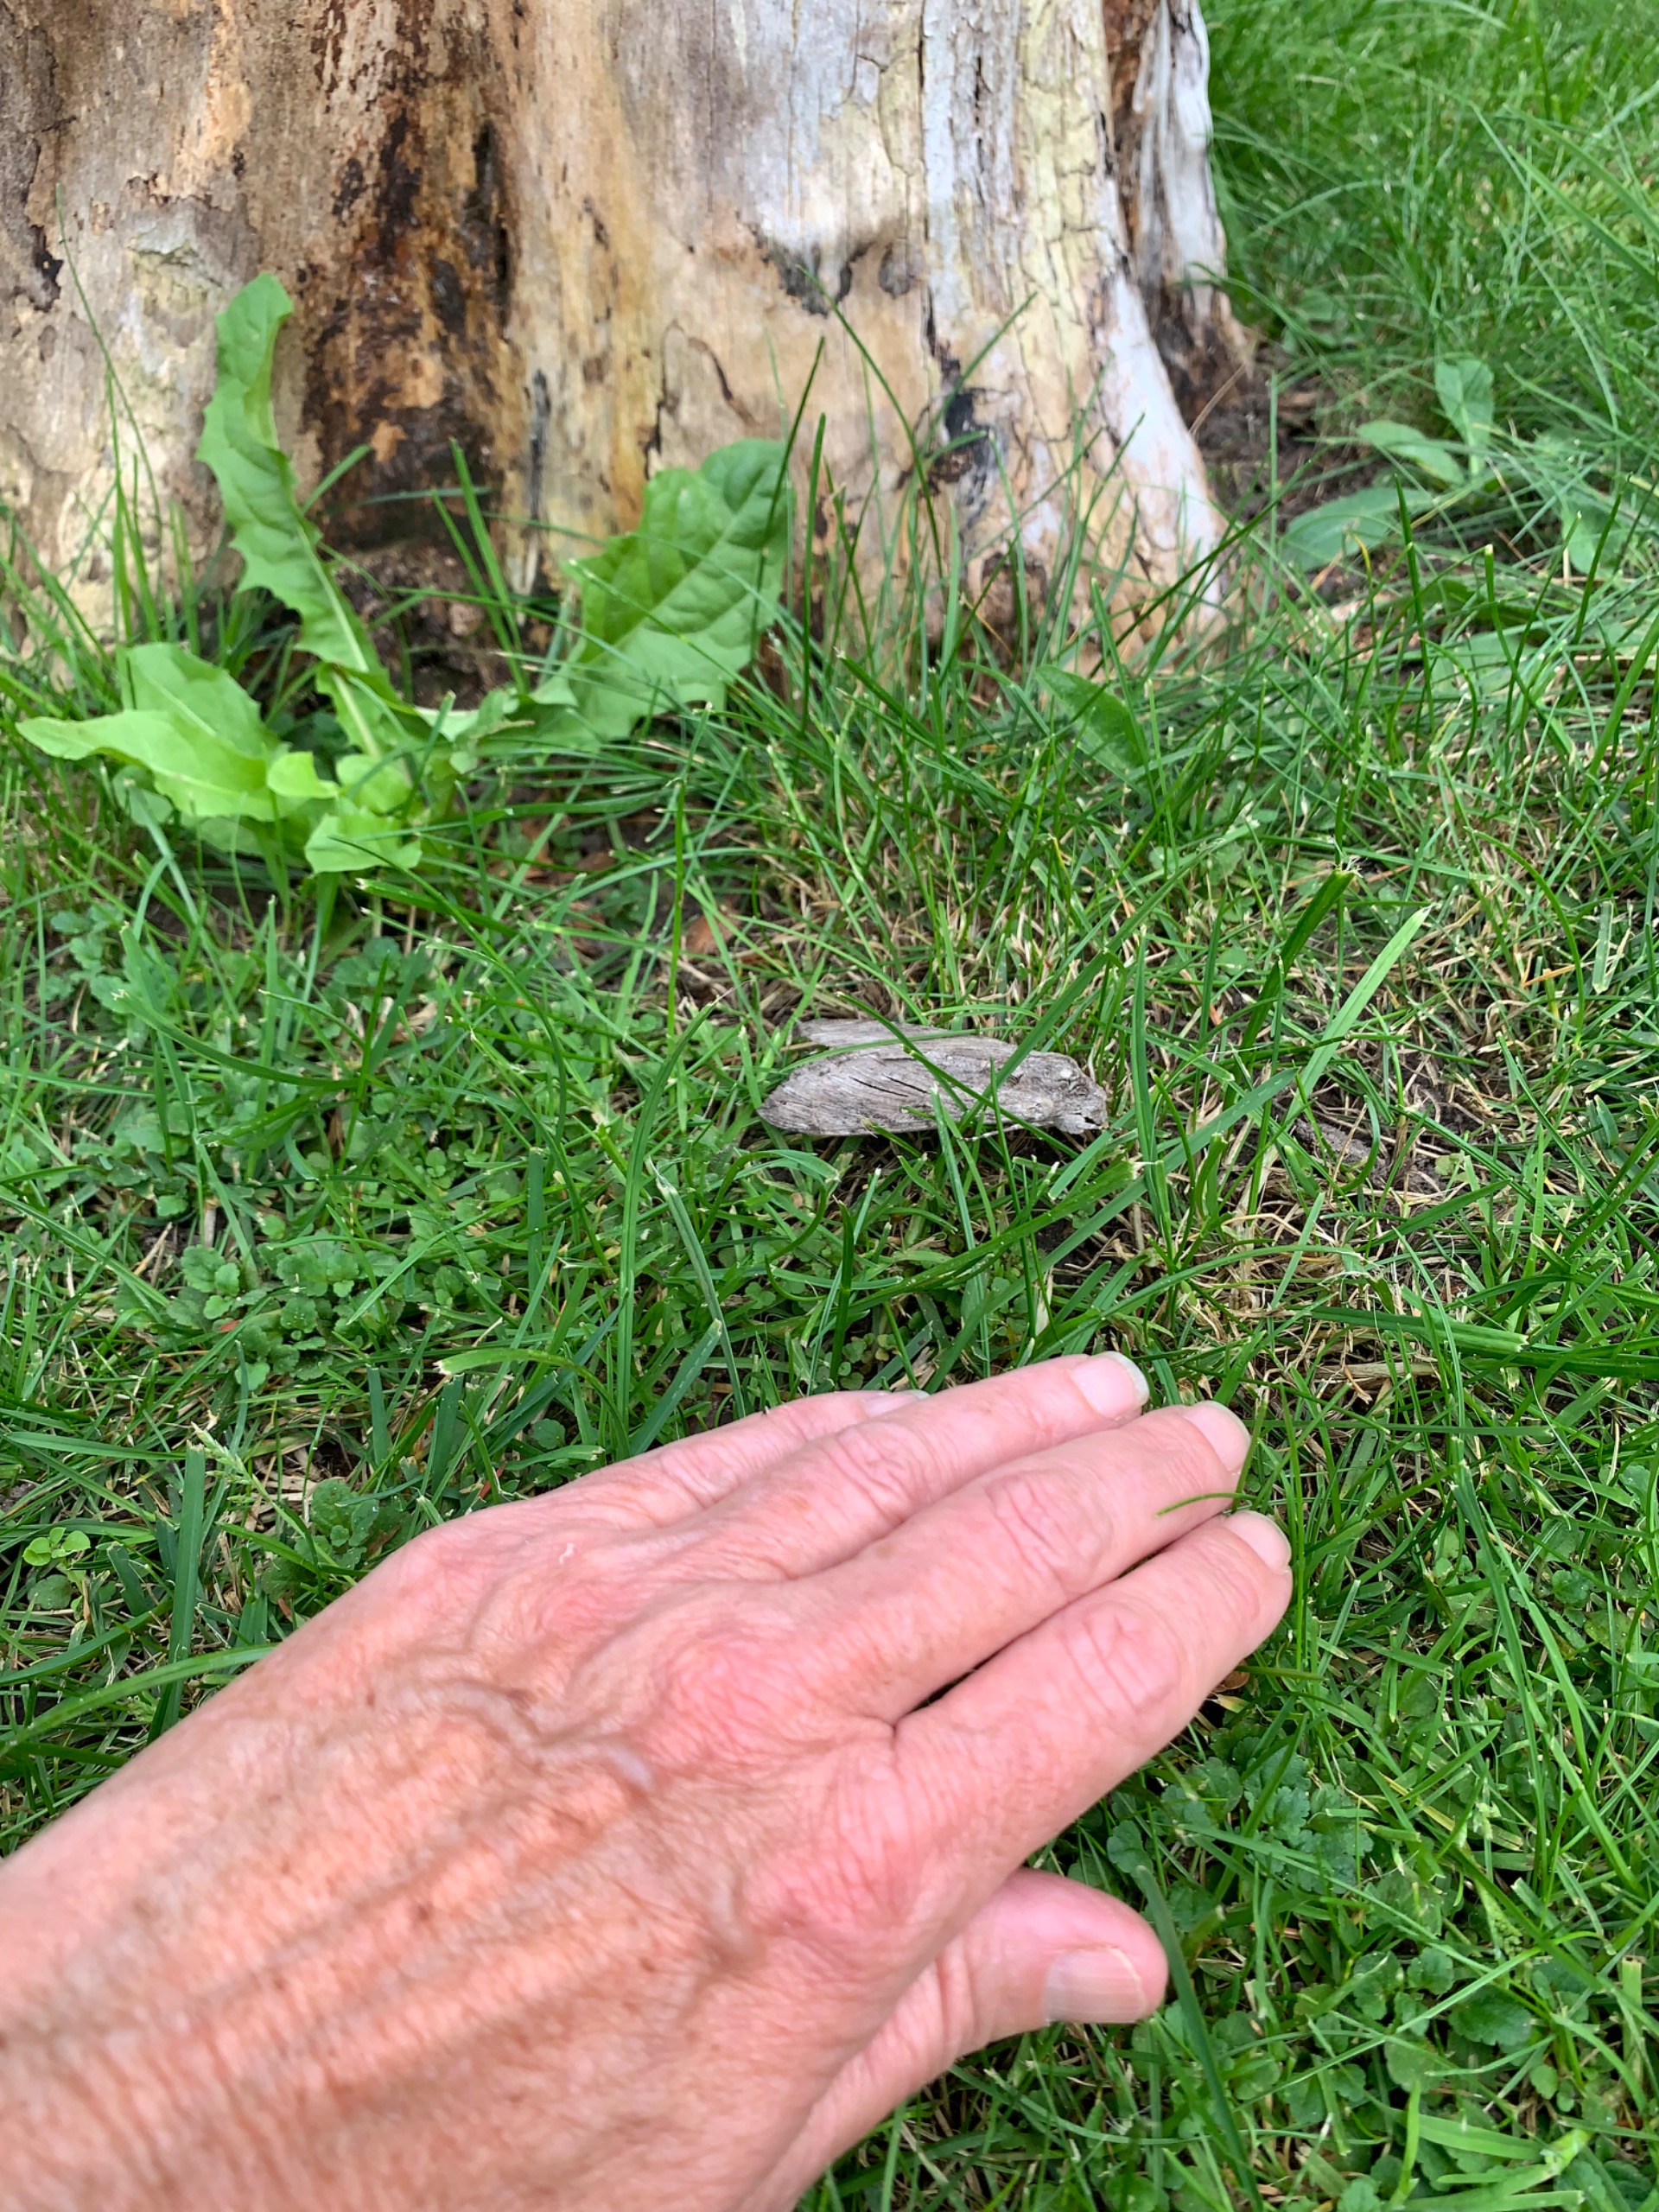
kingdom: Animalia
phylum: Arthropoda
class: Insecta
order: Lepidoptera
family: Sphingidae
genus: Agrius
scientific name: Agrius convolvuli
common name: Snerlesværmer
